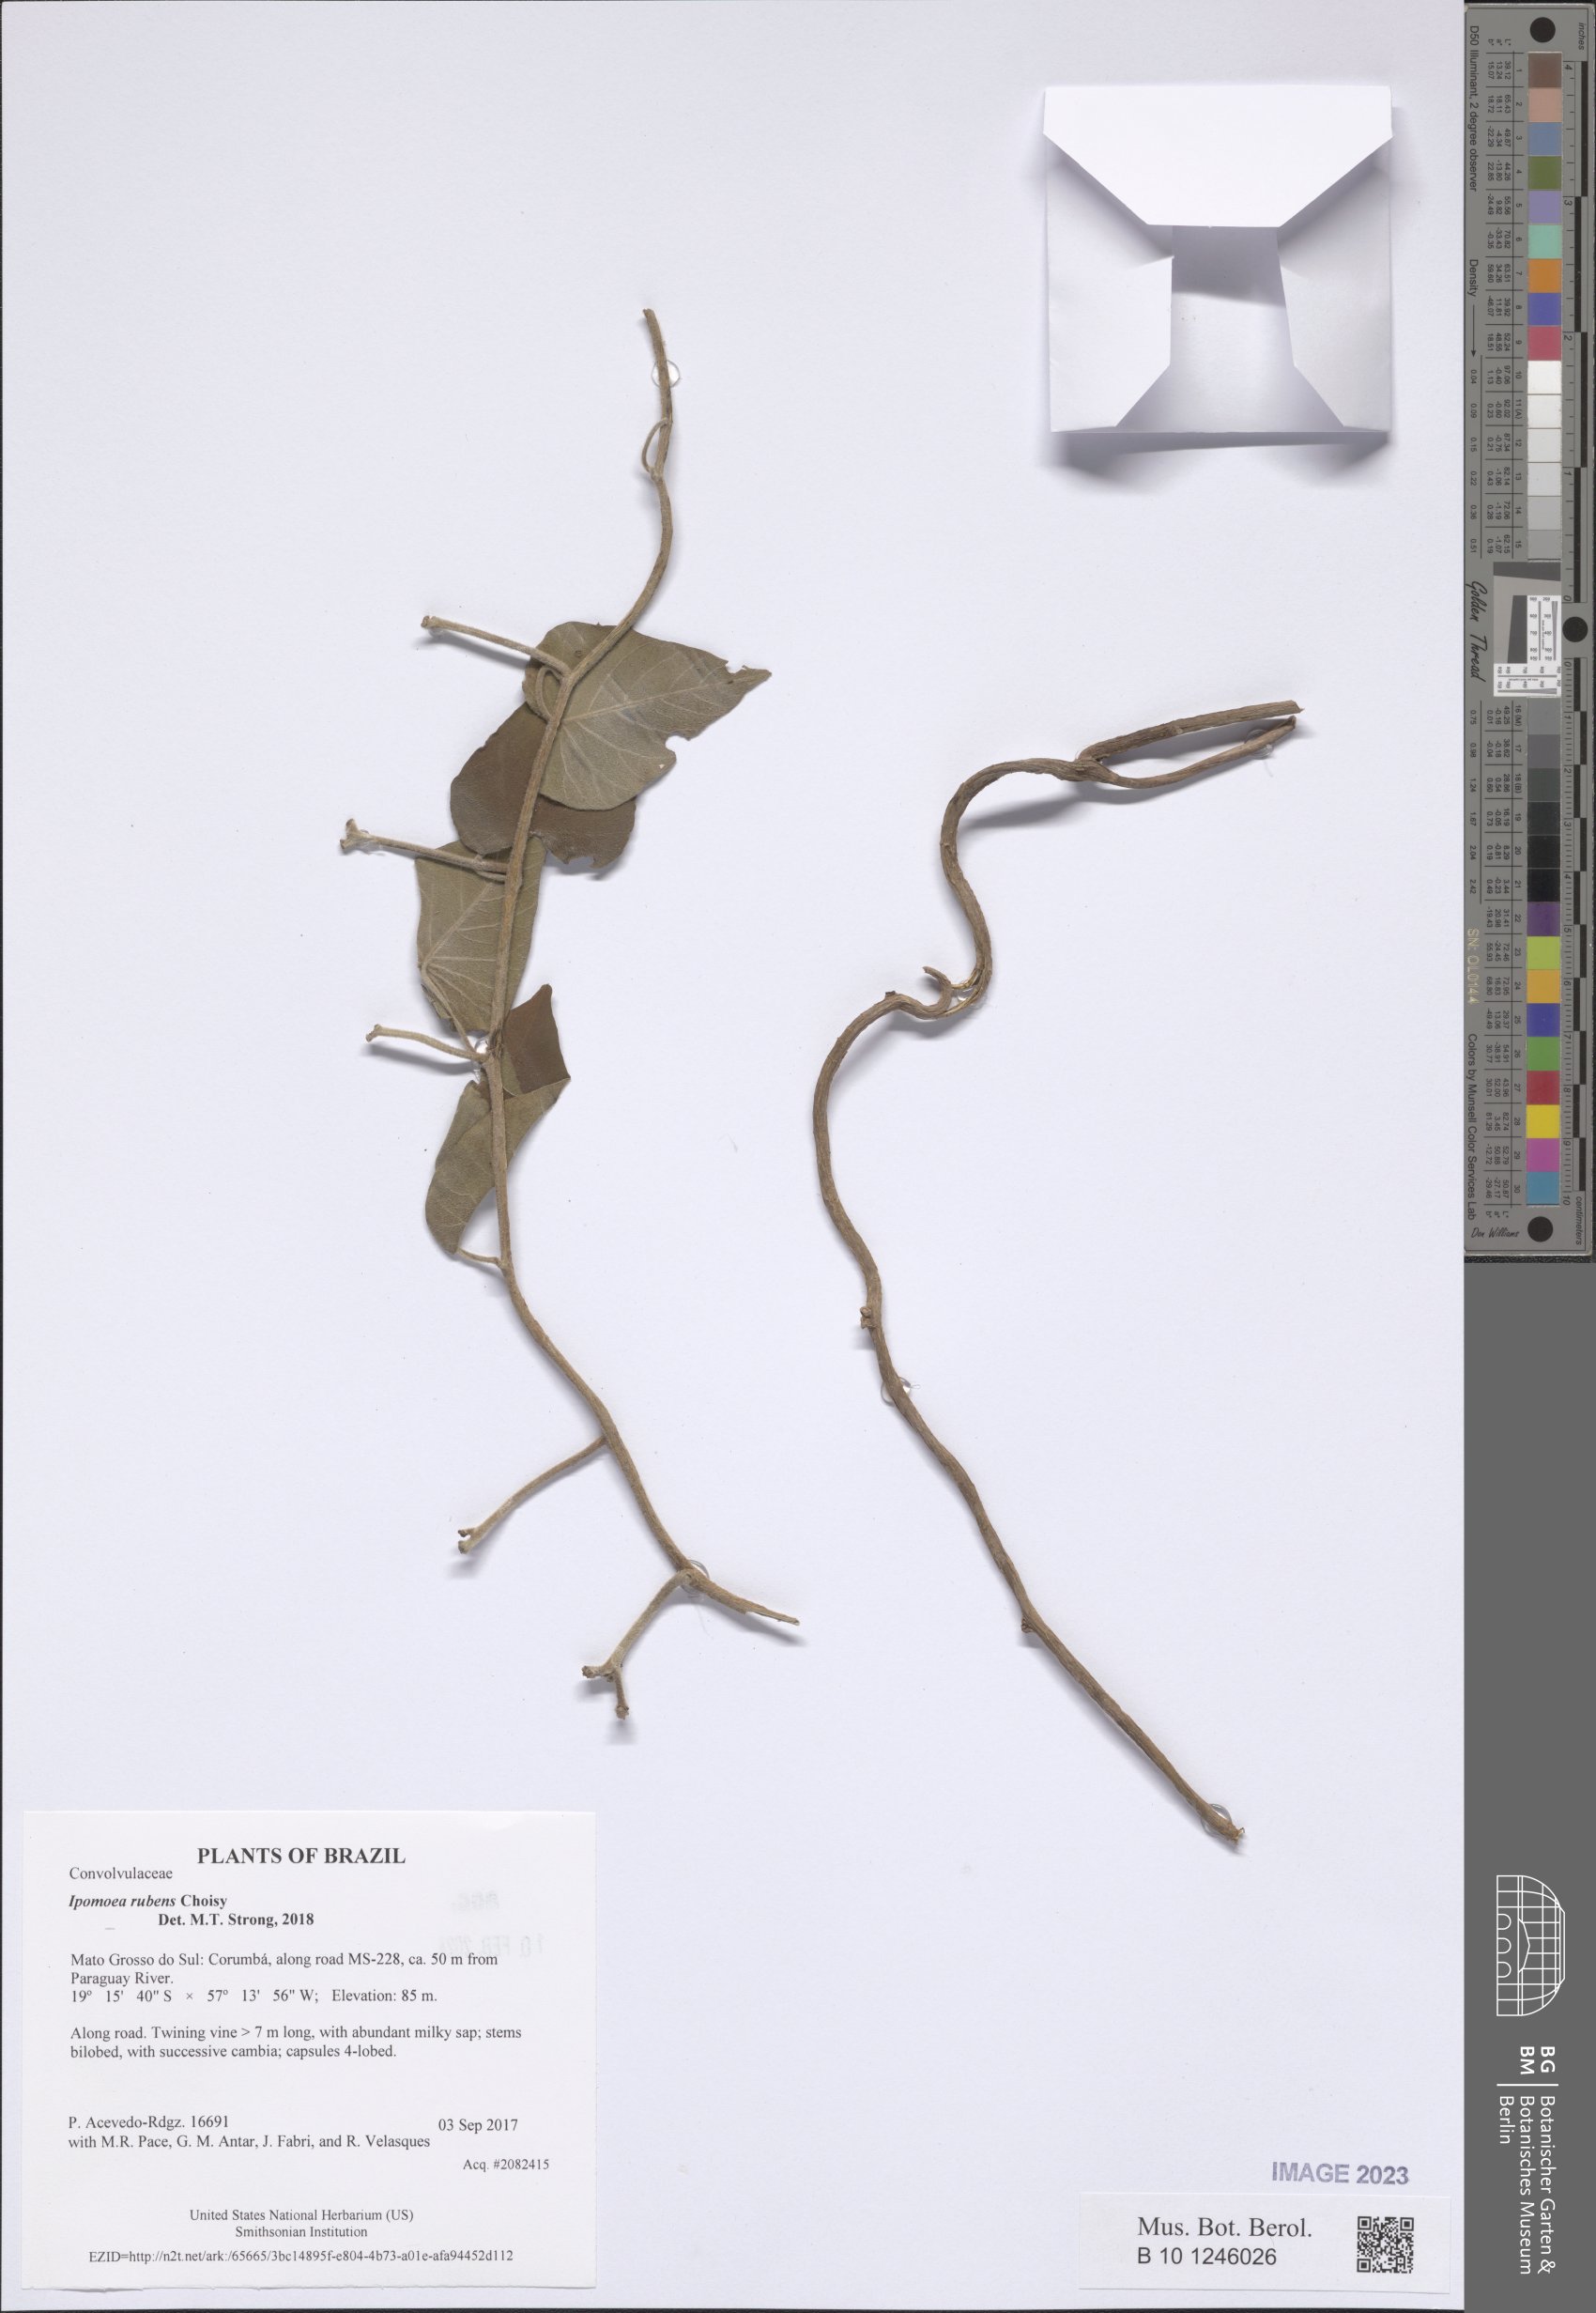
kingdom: Plantae
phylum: Tracheophyta
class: Magnoliopsida
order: Solanales
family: Convolvulaceae
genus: Ipomoea
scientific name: Ipomoea rubens
